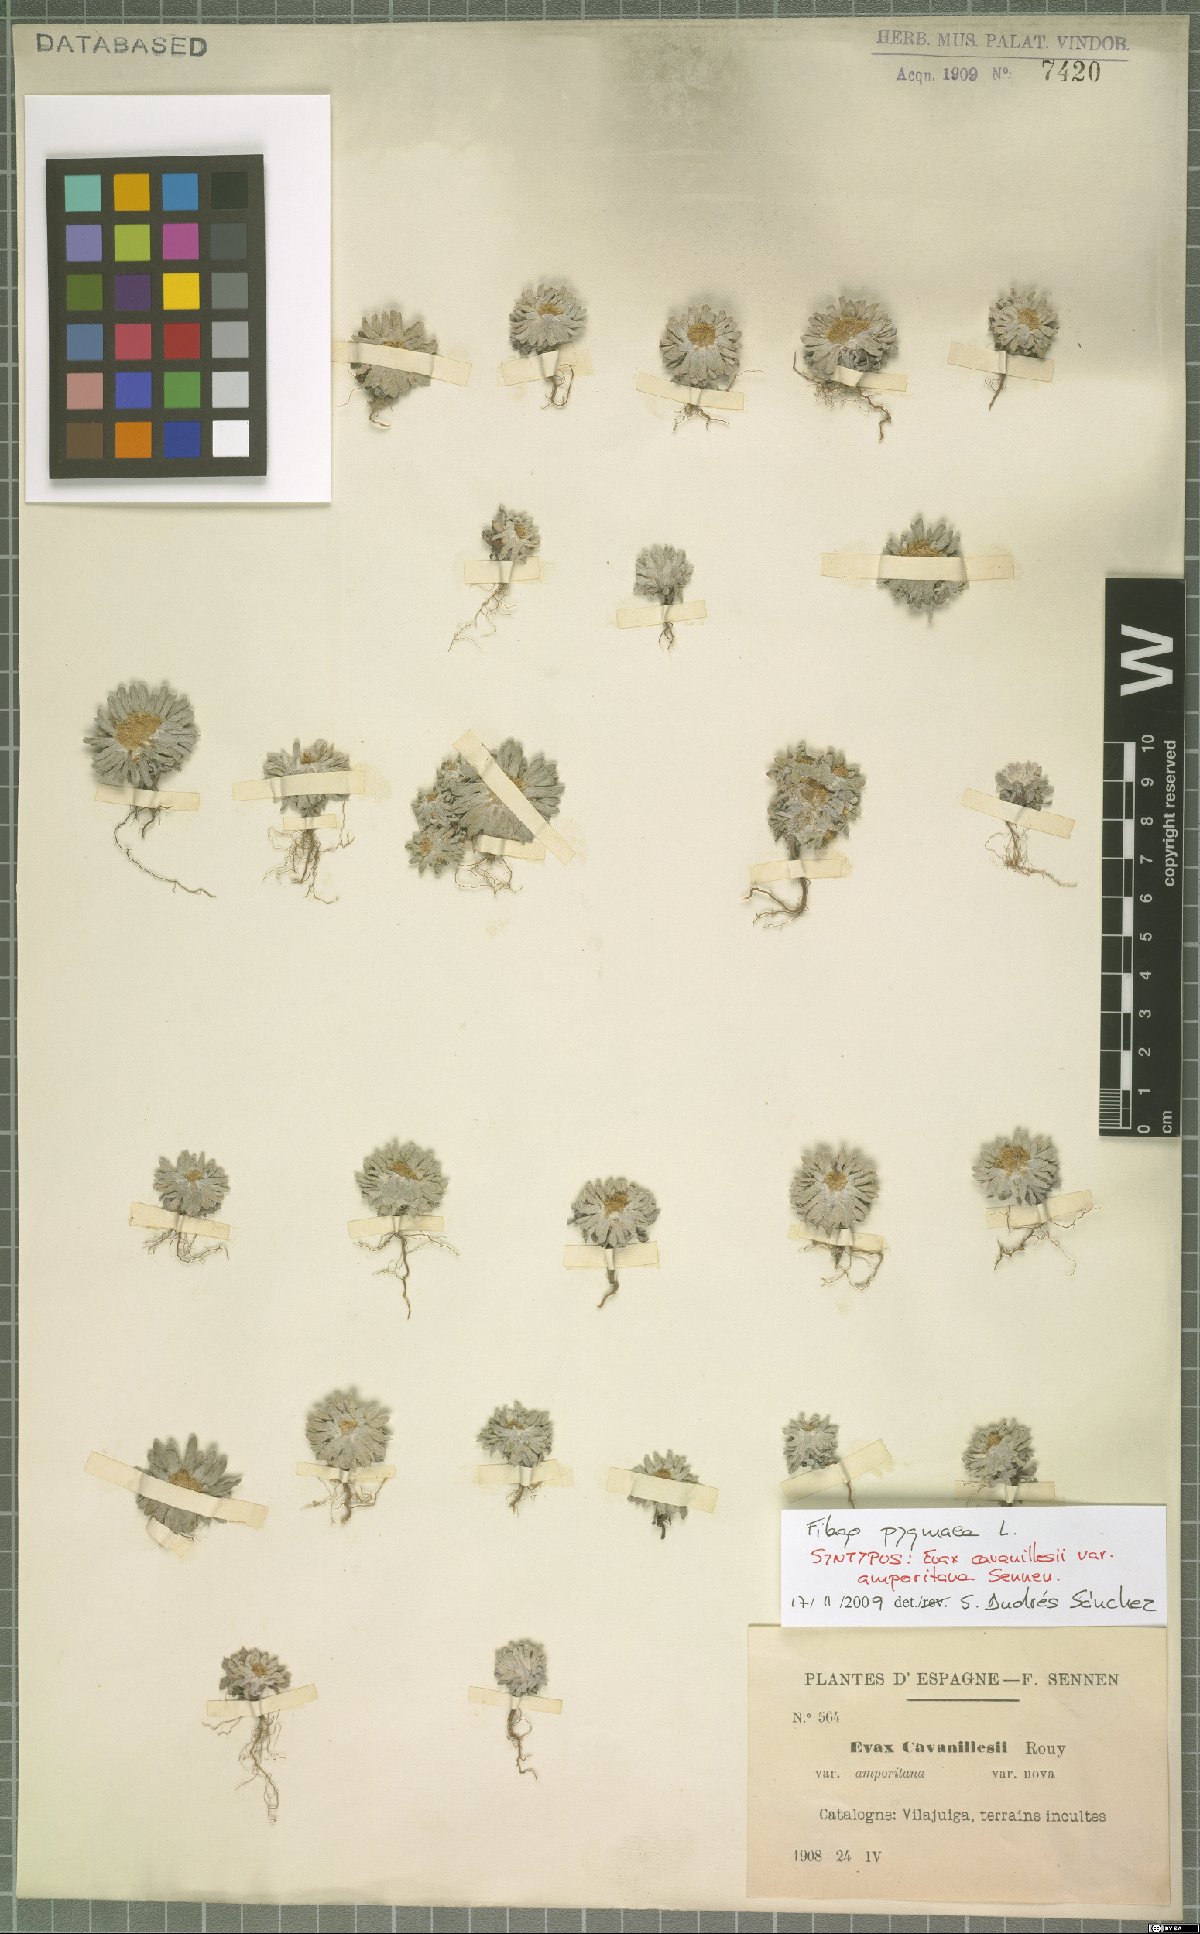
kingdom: Plantae
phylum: Tracheophyta
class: Magnoliopsida
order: Asterales
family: Asteraceae
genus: Filago
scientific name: Filago pygmaea
